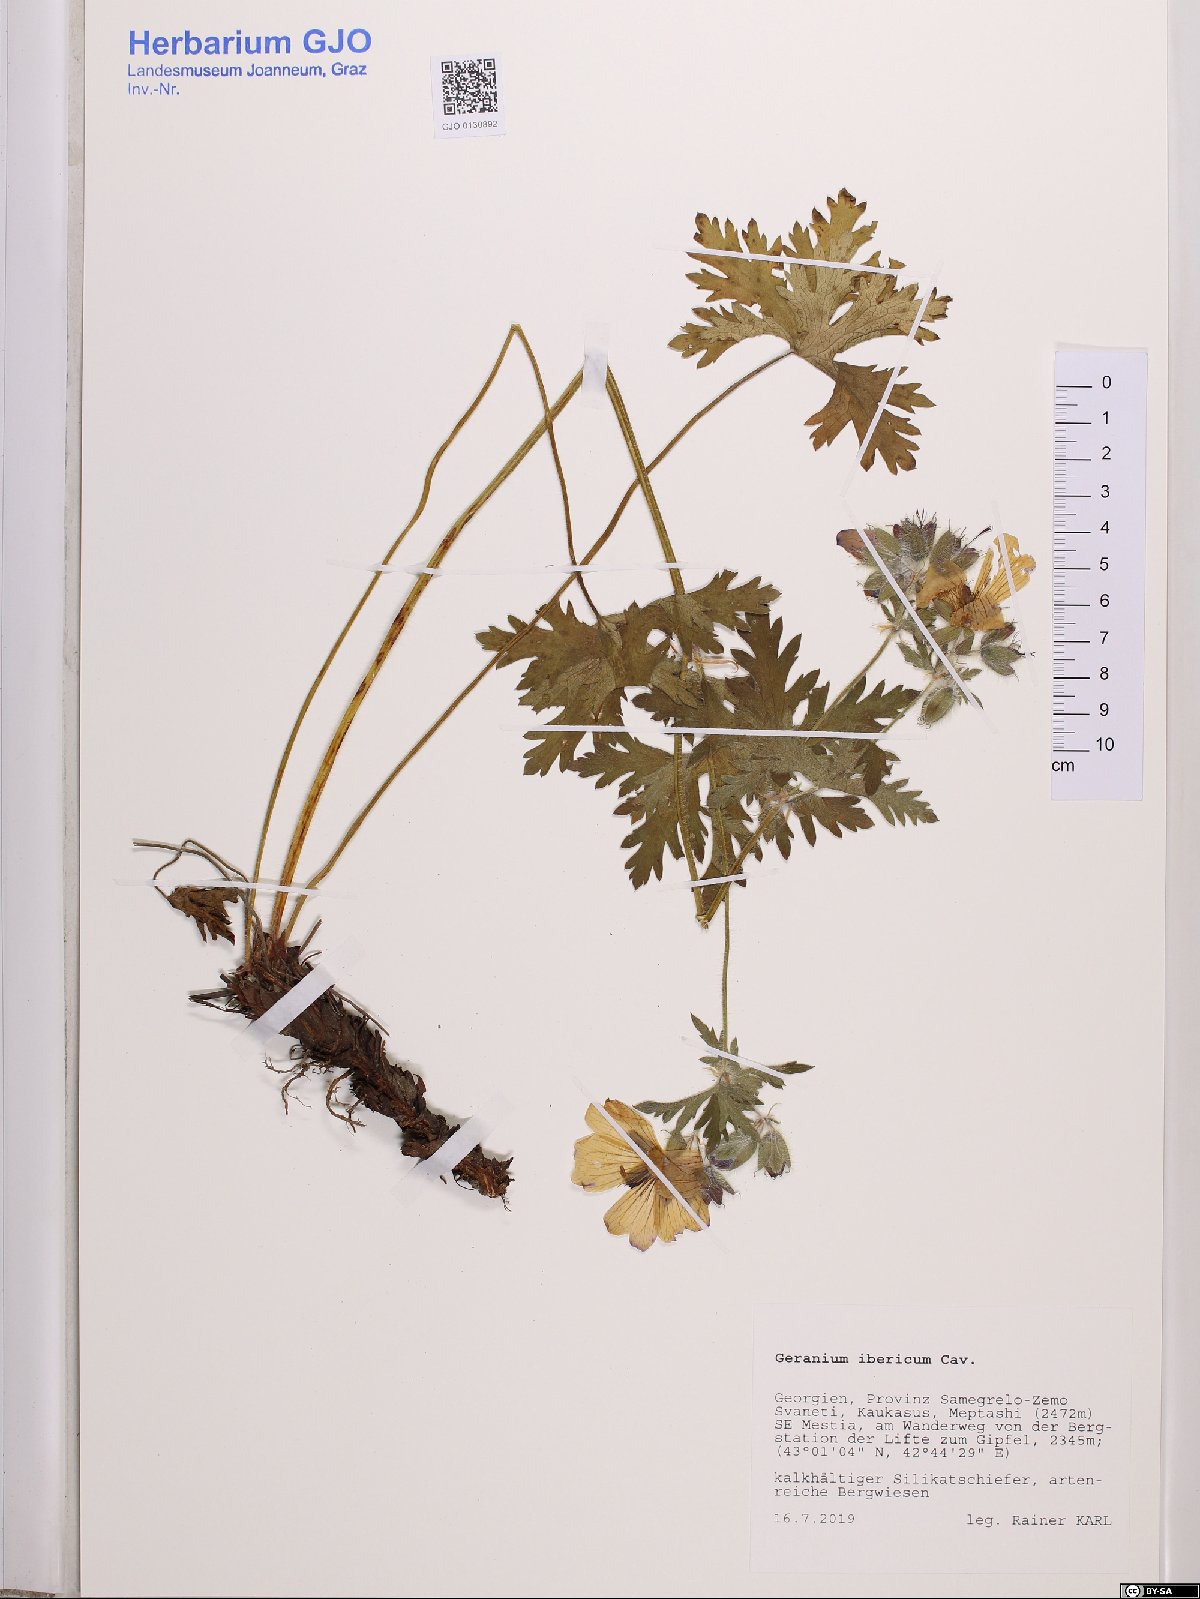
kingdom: Plantae
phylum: Tracheophyta
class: Magnoliopsida
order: Geraniales
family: Geraniaceae
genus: Geranium
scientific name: Geranium ibericum
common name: Caucasian crane's-bill
